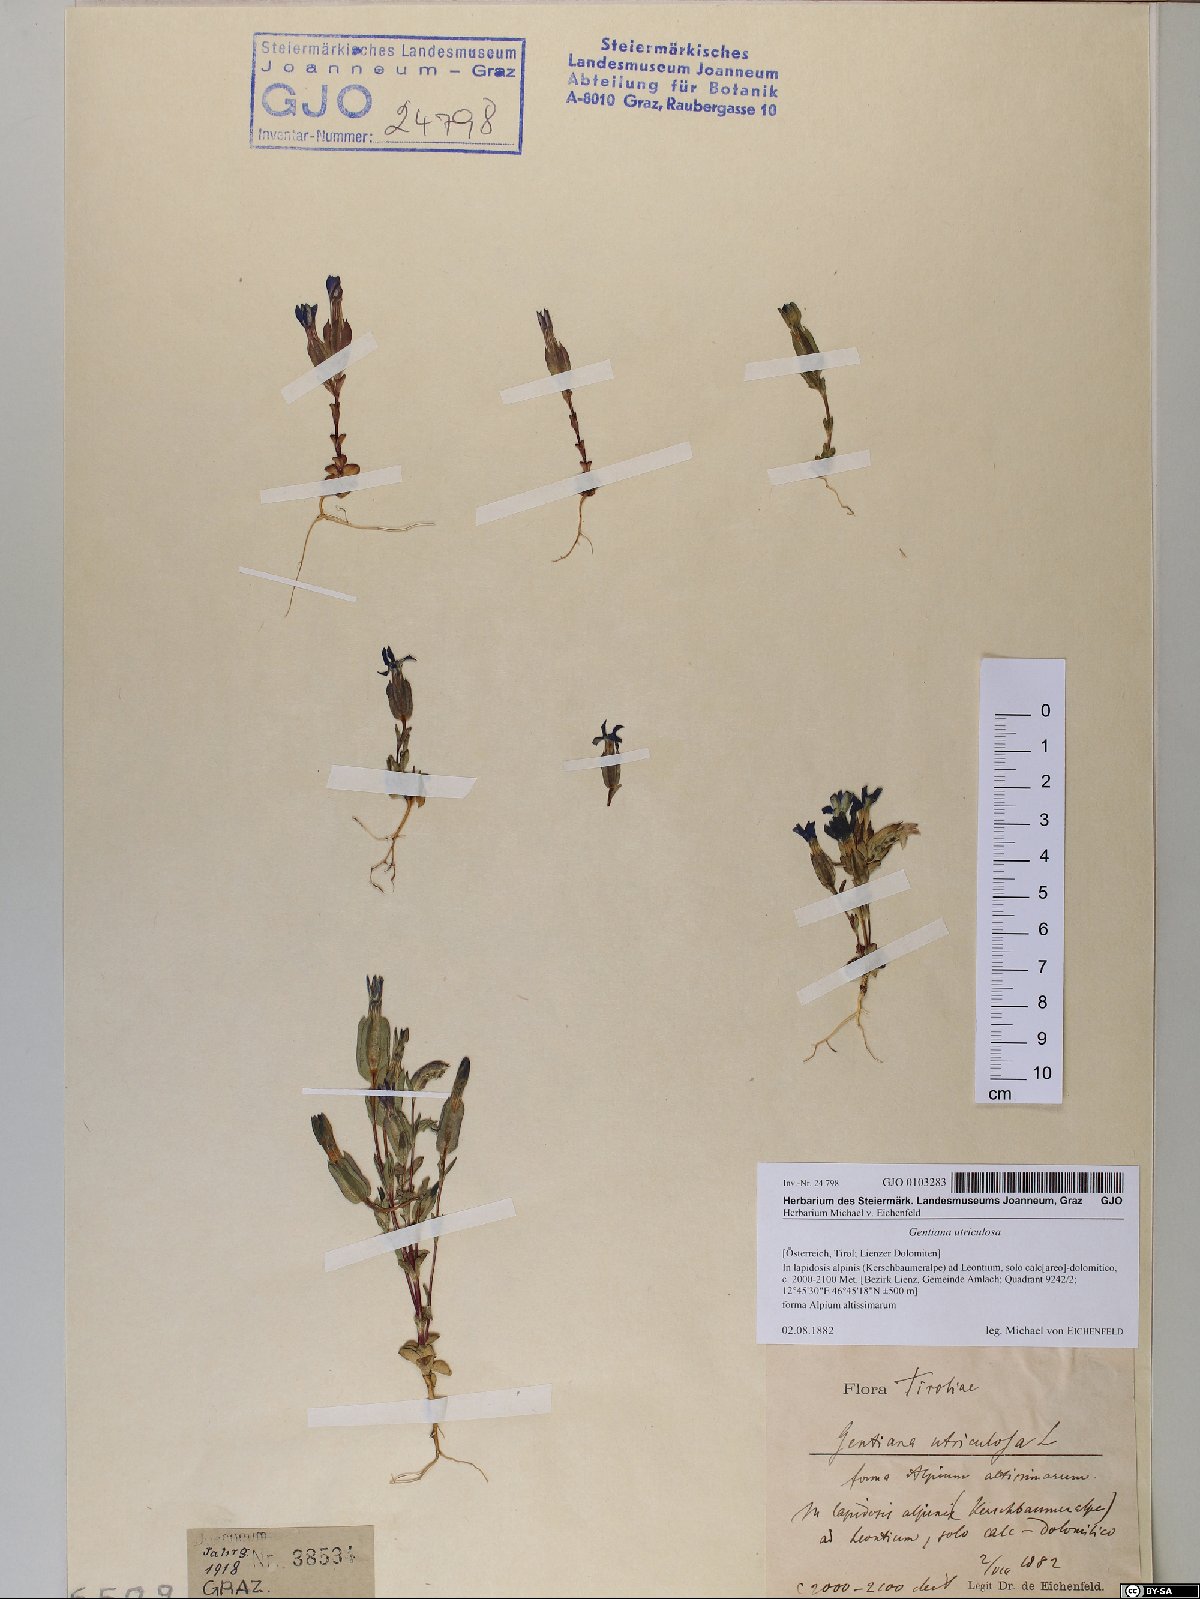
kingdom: Plantae
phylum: Tracheophyta
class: Magnoliopsida
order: Gentianales
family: Gentianaceae
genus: Gentiana
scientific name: Gentiana utriculosa
